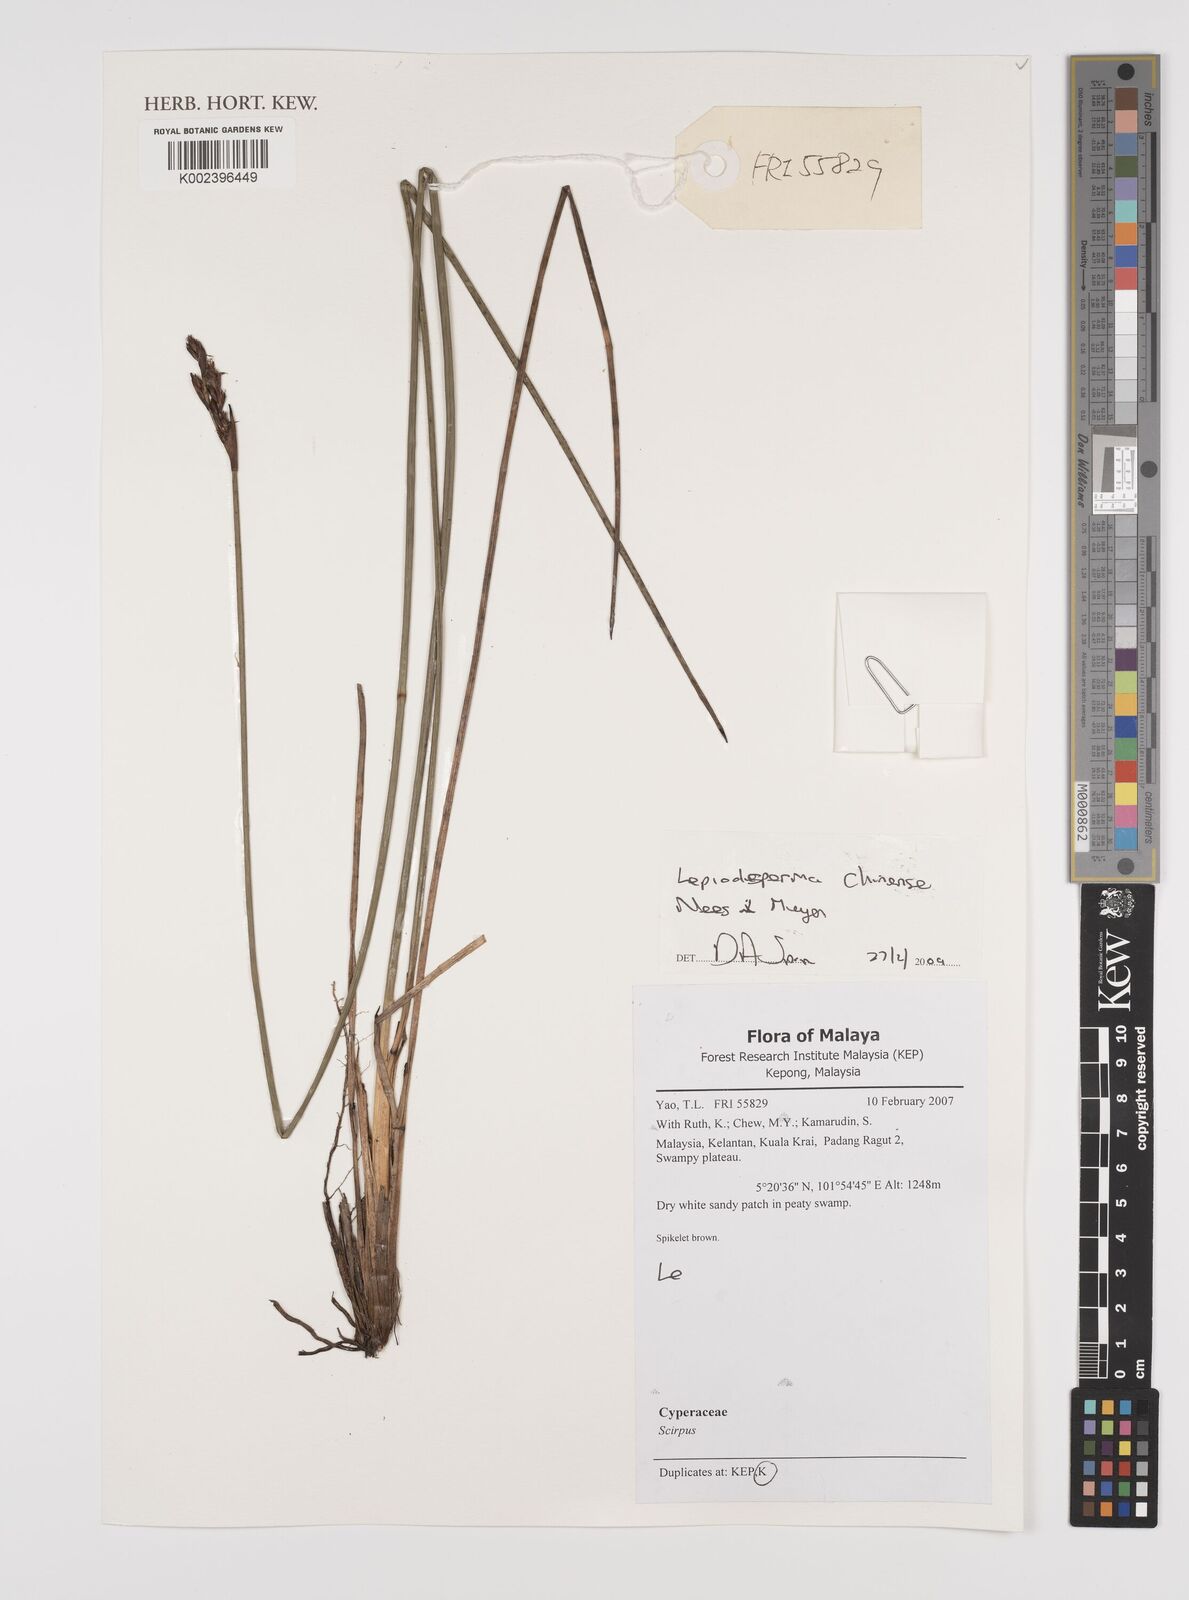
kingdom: Plantae
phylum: Tracheophyta
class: Liliopsida
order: Poales
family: Cyperaceae
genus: Lepidosperma
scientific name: Lepidosperma chinense
